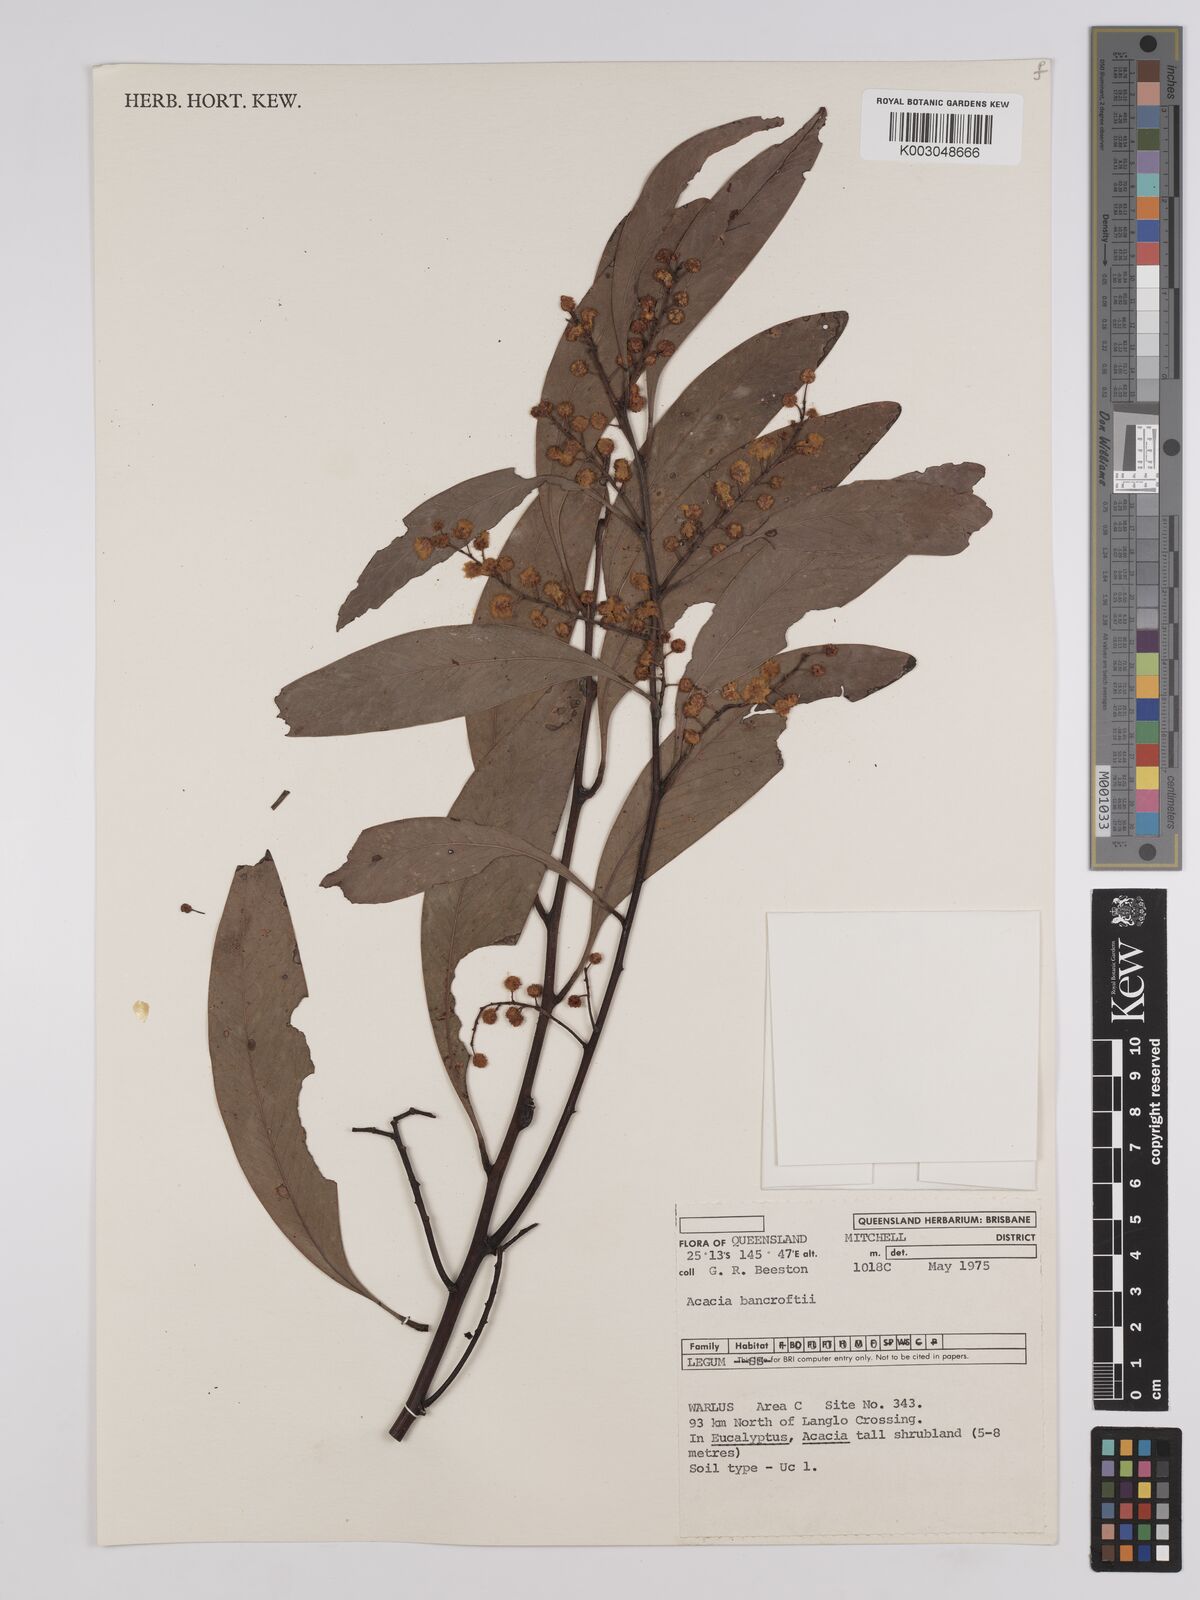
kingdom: Plantae
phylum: Tracheophyta
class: Magnoliopsida
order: Fabales
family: Fabaceae
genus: Acacia
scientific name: Acacia
